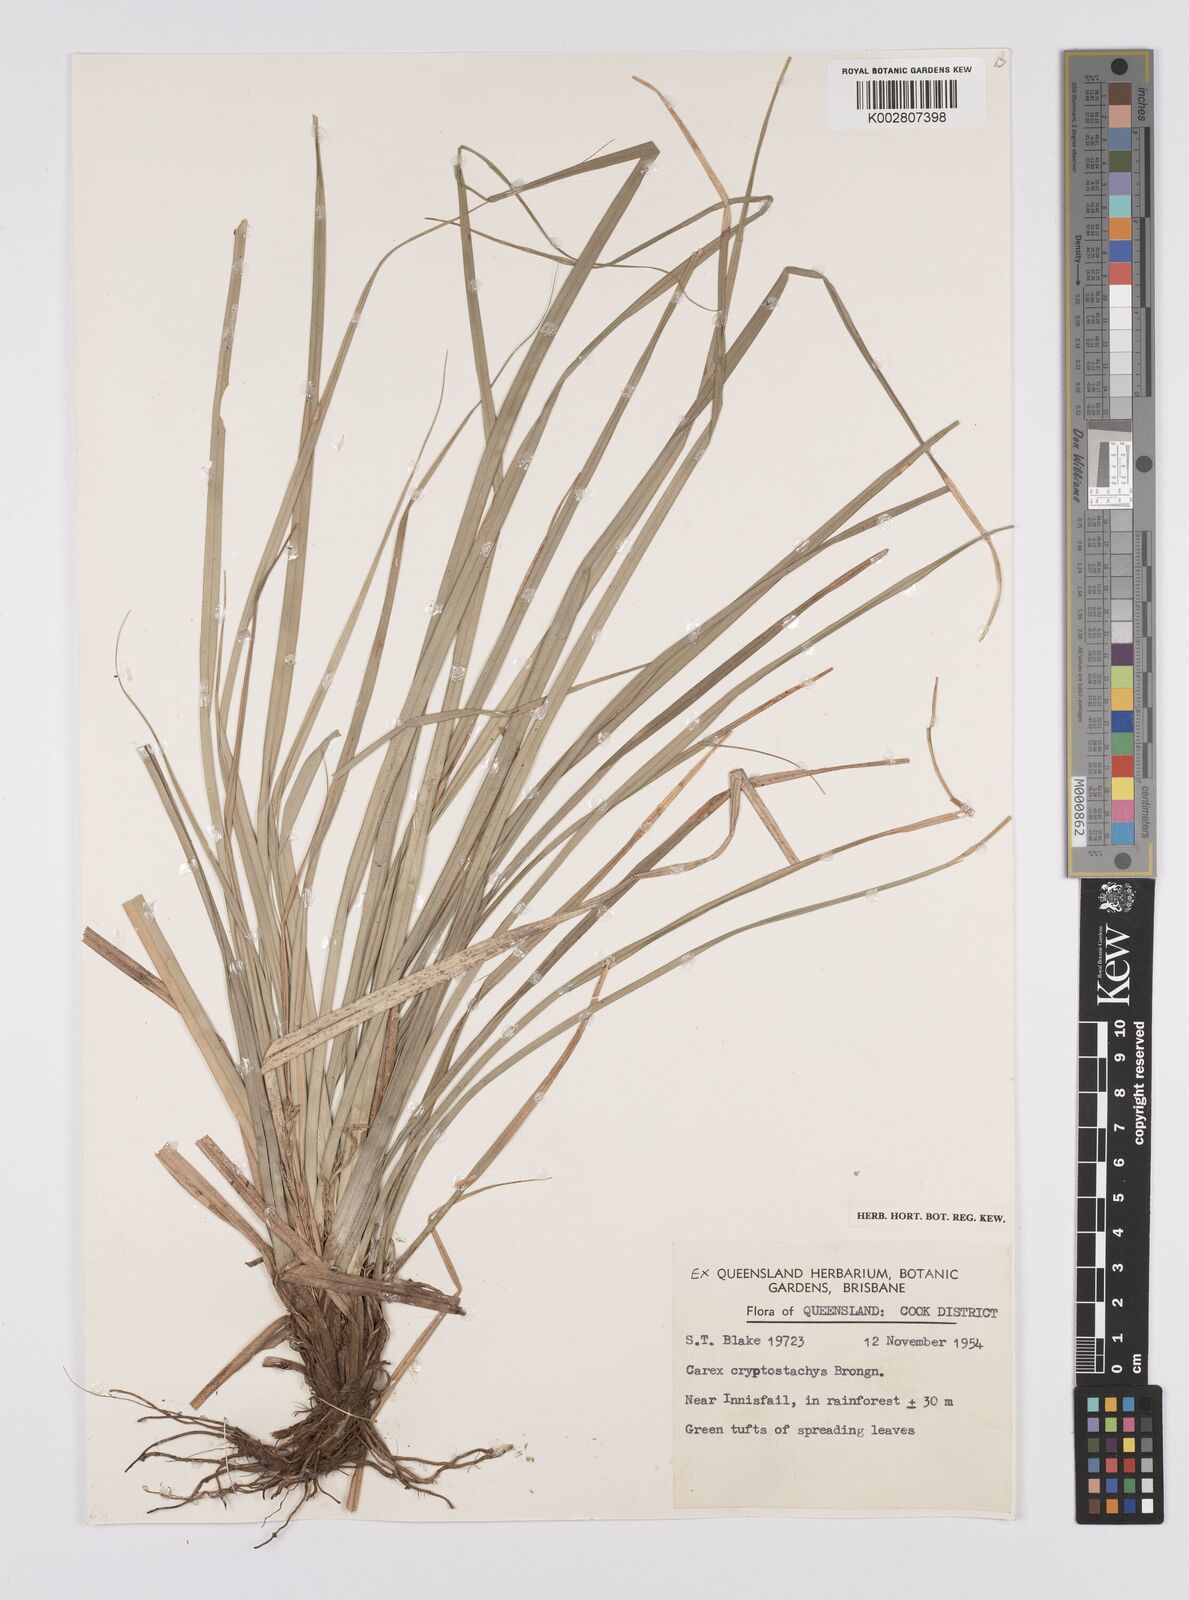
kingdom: Plantae
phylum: Tracheophyta
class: Liliopsida
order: Poales
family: Cyperaceae
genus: Carex
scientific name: Carex cryptostachys
